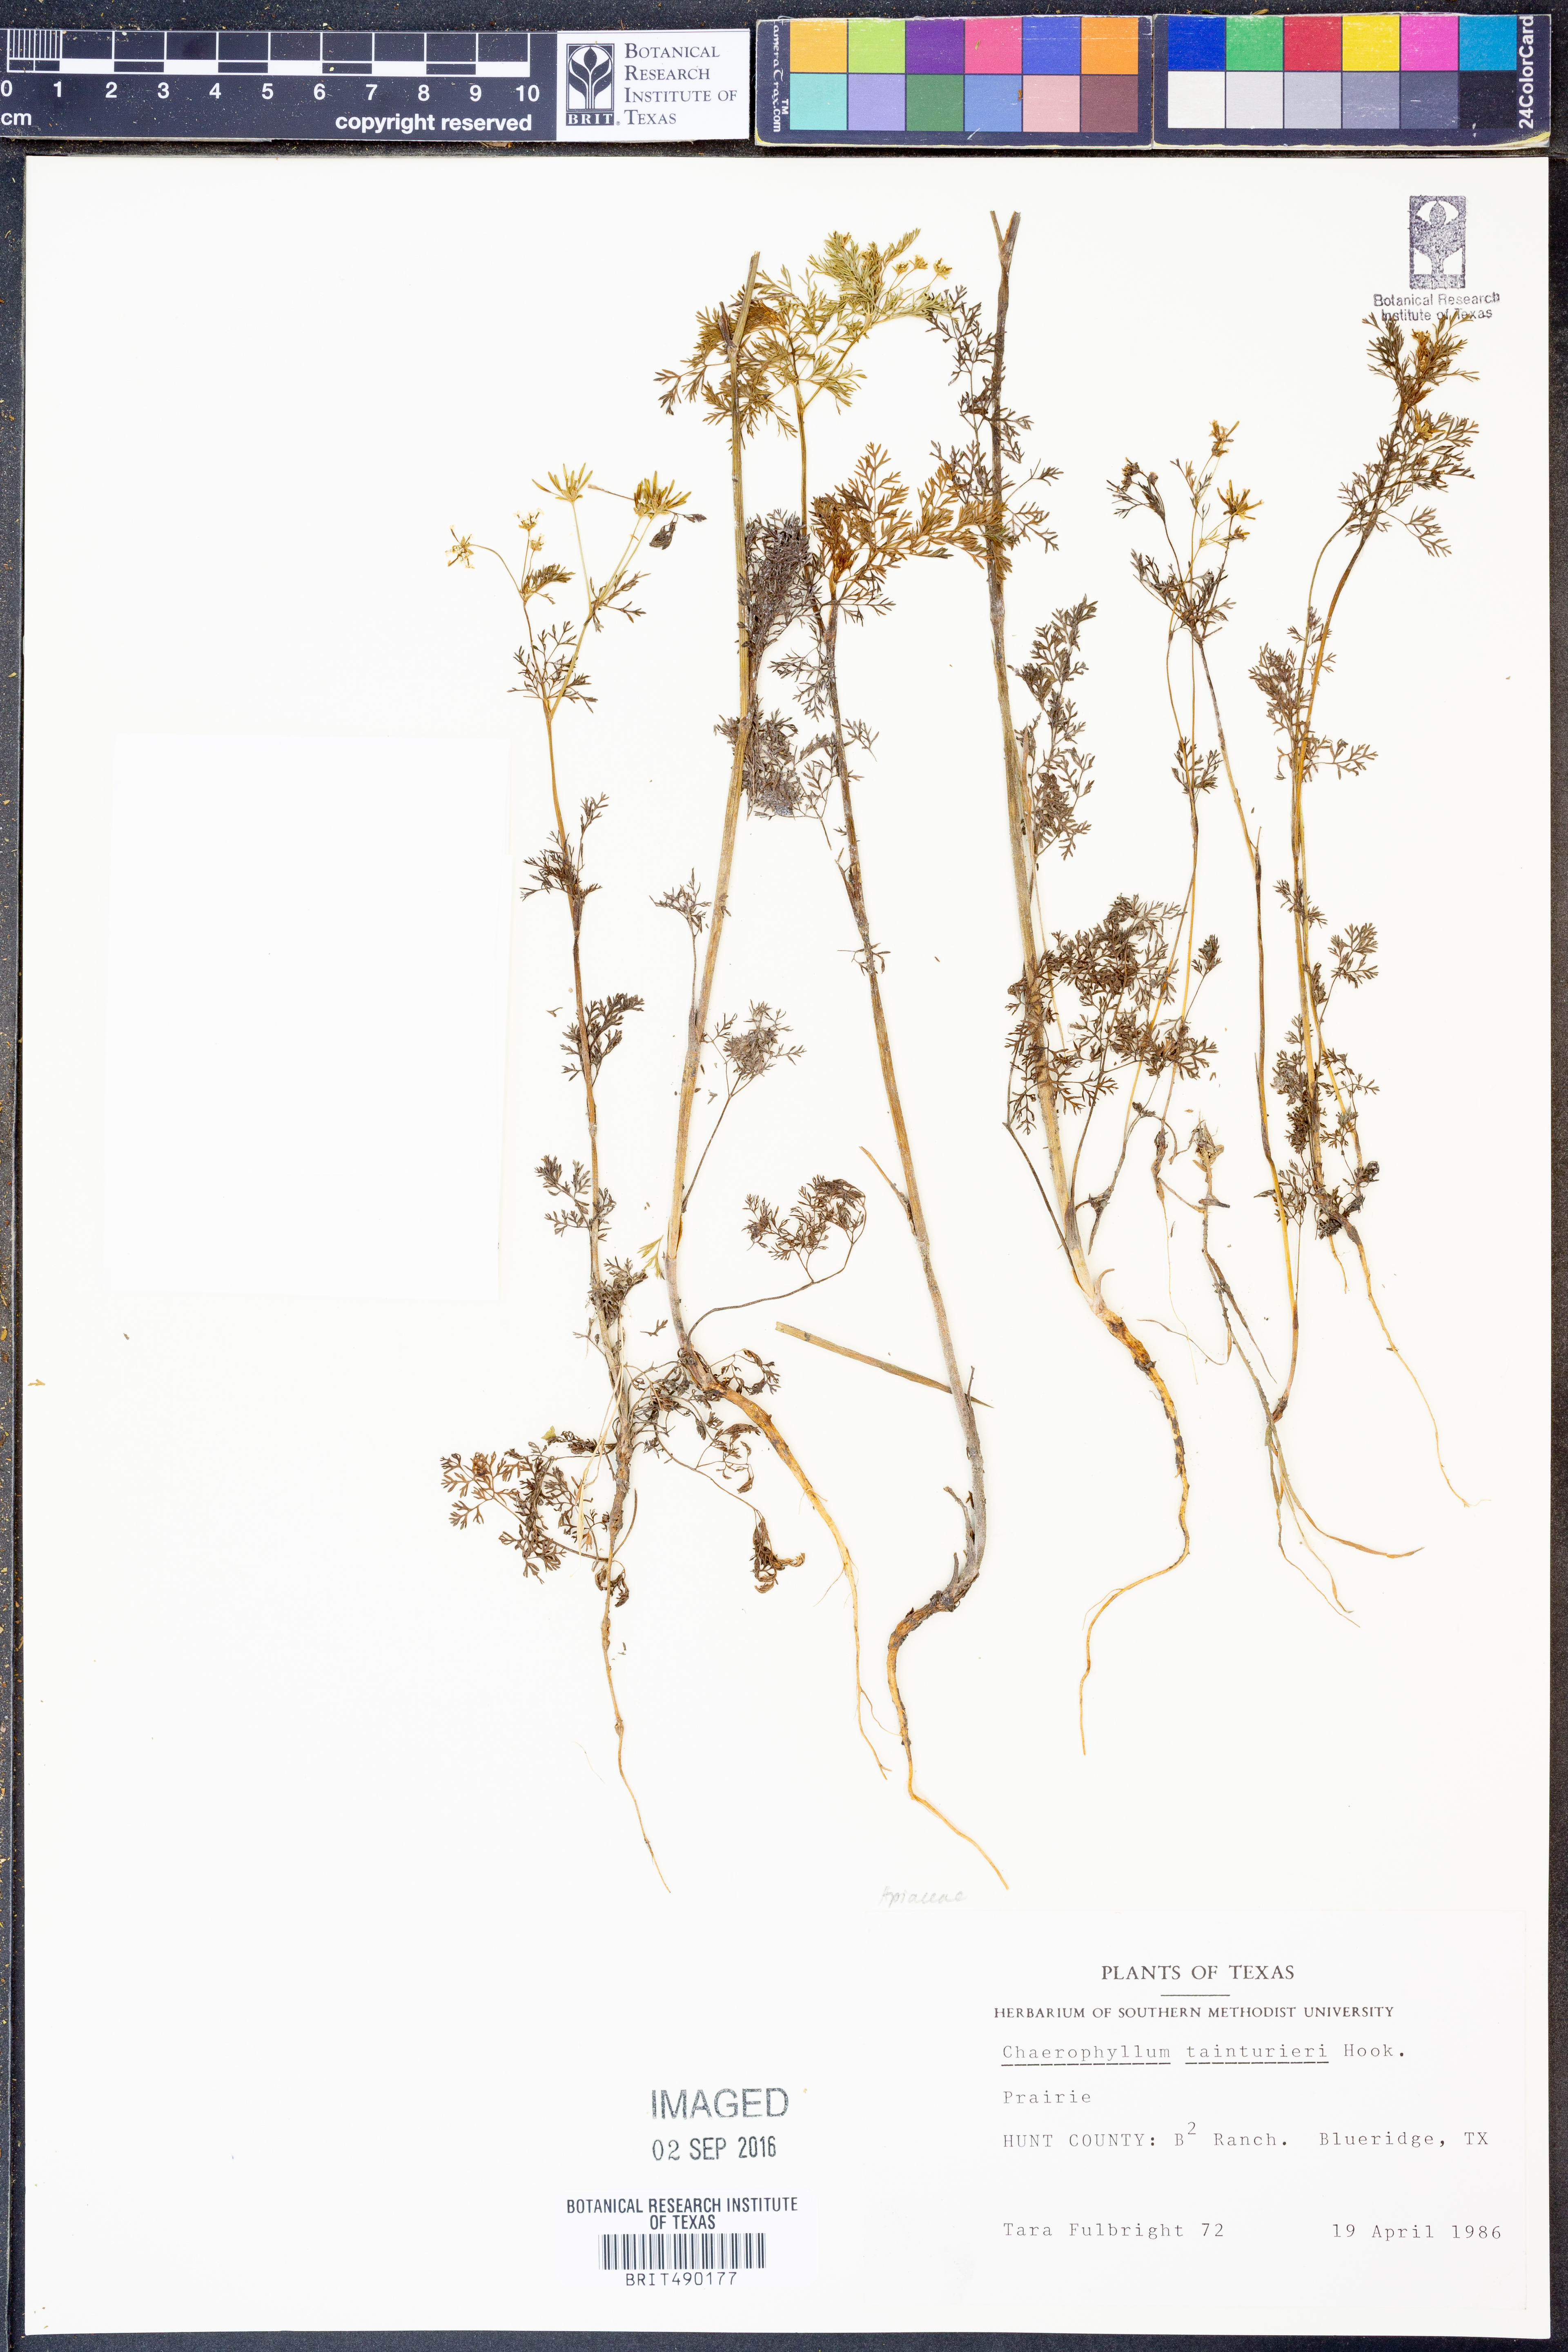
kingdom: Plantae
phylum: Tracheophyta
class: Magnoliopsida
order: Apiales
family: Apiaceae
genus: Chaerophyllum
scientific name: Chaerophyllum tainturieri
